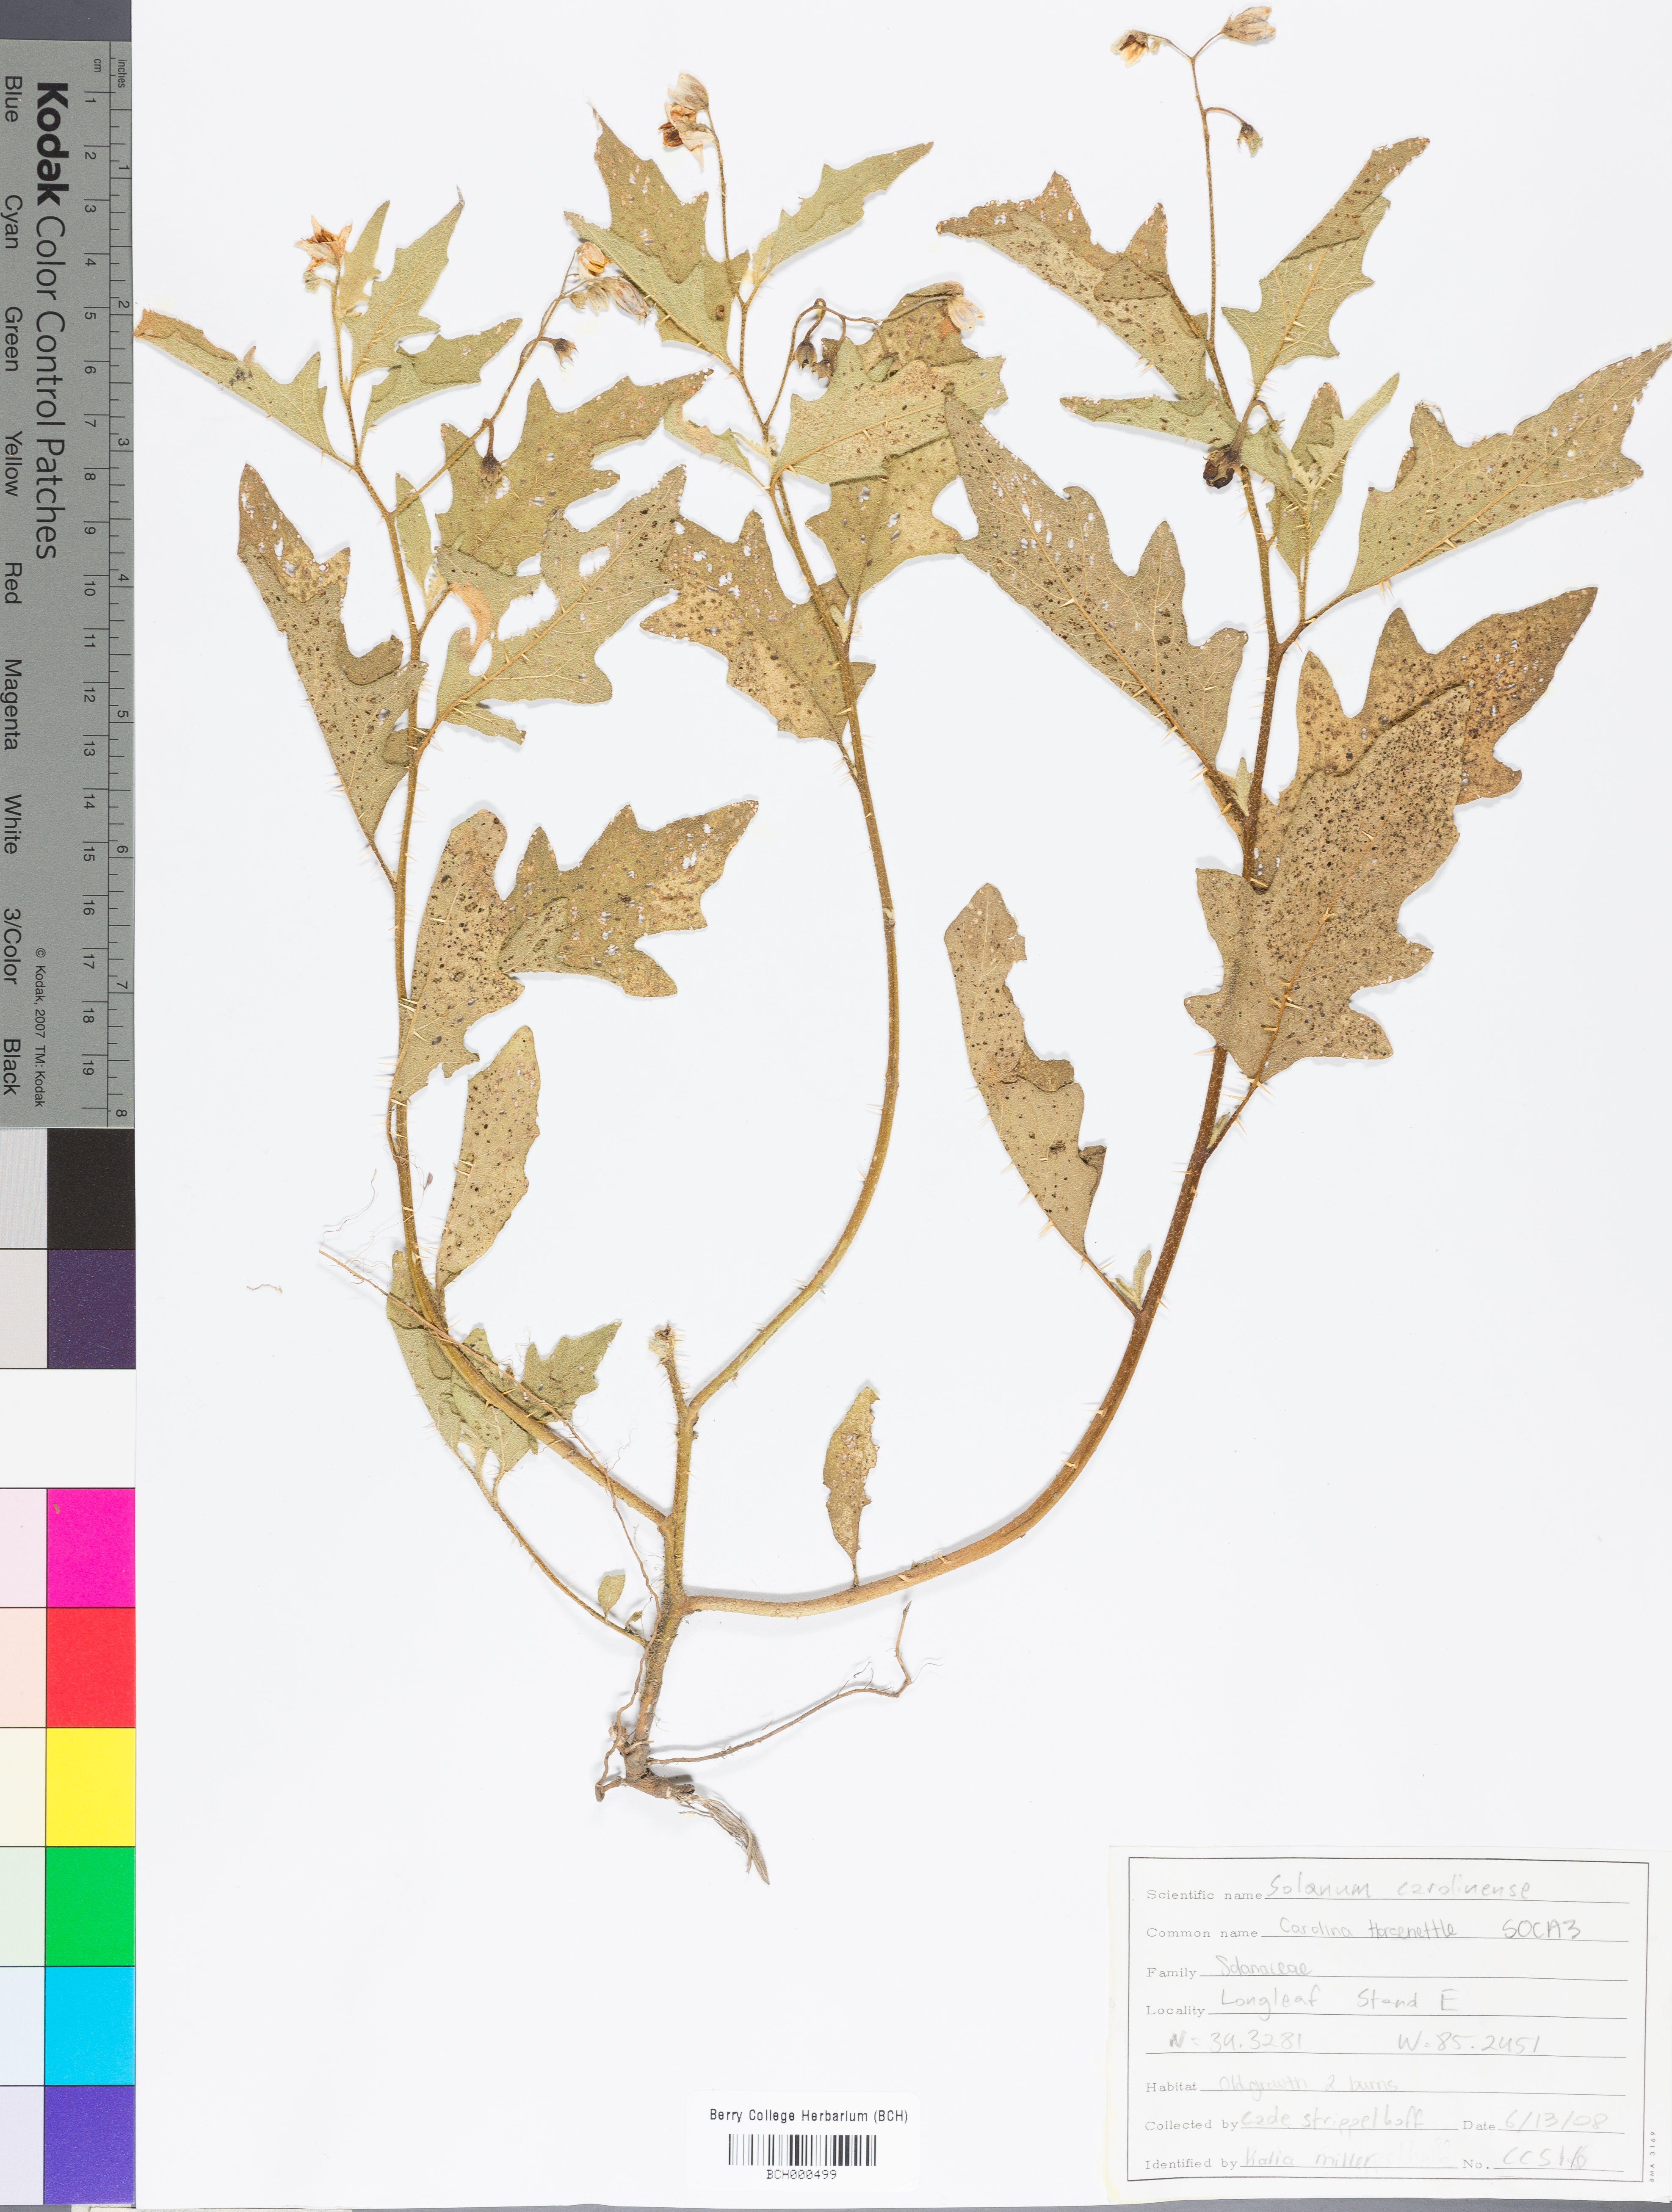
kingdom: Plantae
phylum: Tracheophyta
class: Magnoliopsida
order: Solanales
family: Solanaceae
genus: Solanum
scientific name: Solanum carolinense
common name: Horse-nettle
